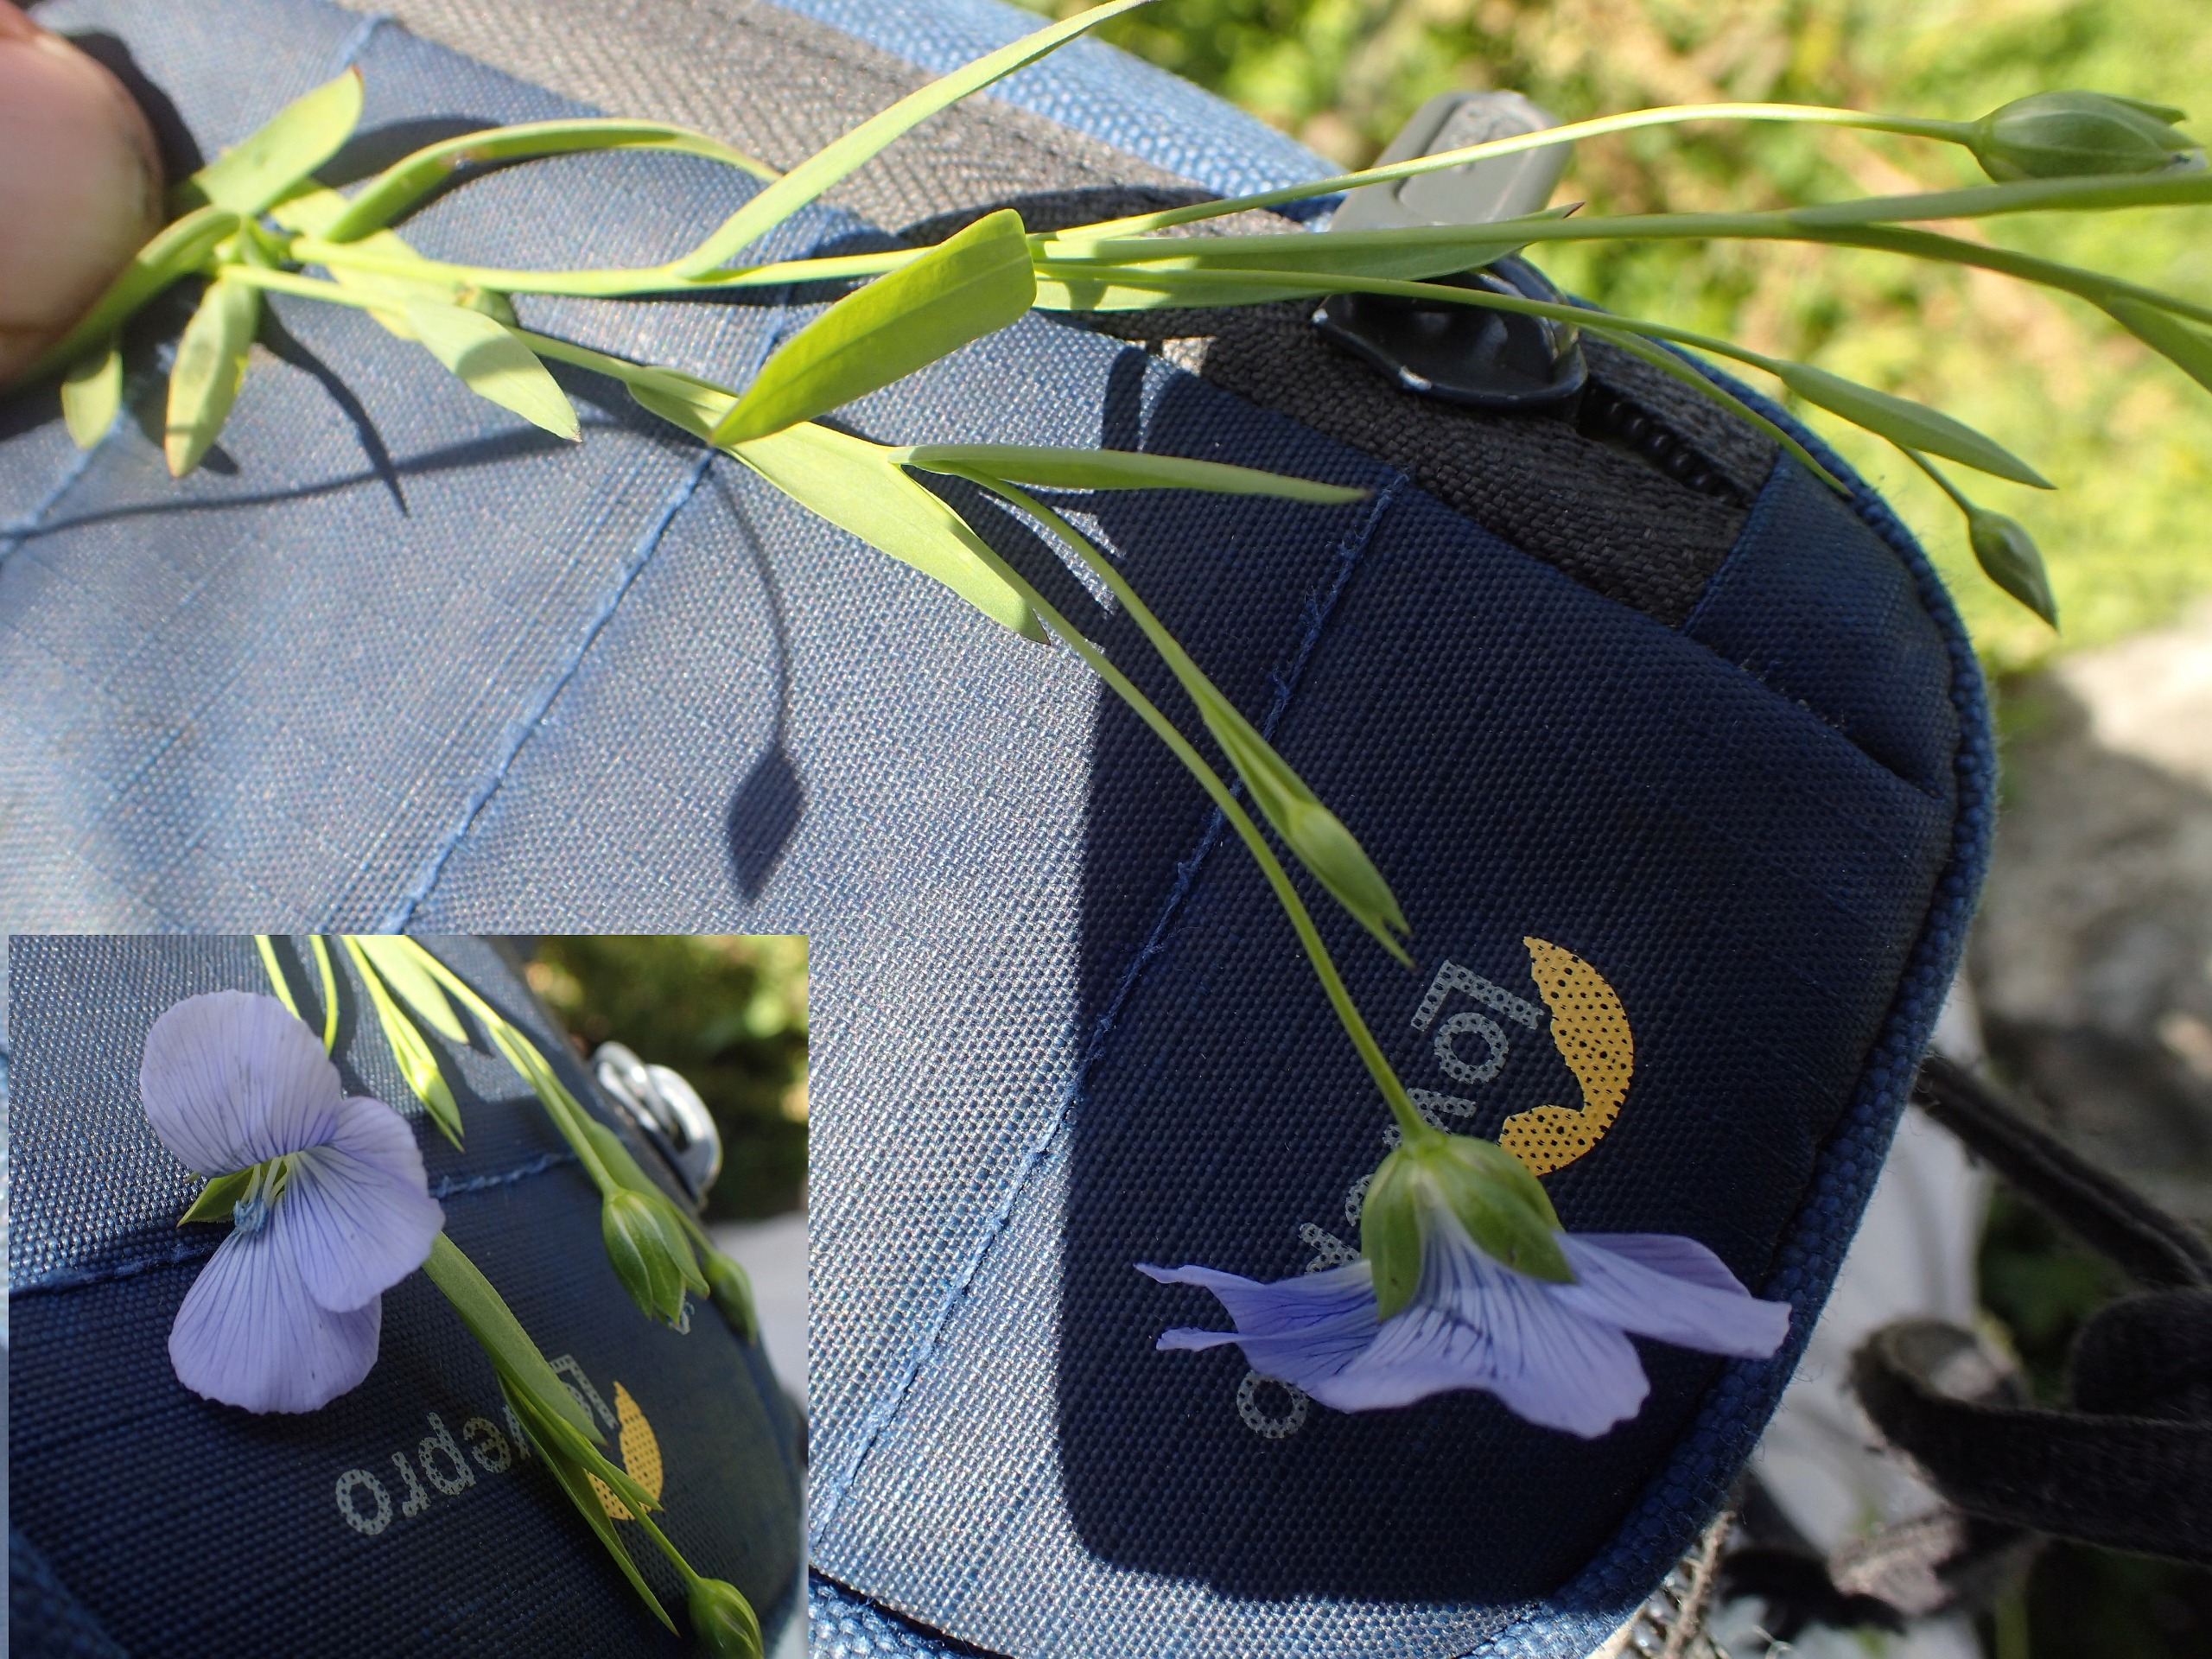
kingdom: Plantae
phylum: Tracheophyta
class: Magnoliopsida
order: Malpighiales
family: Linaceae
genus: Linum
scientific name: Linum
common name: Hørslægten
